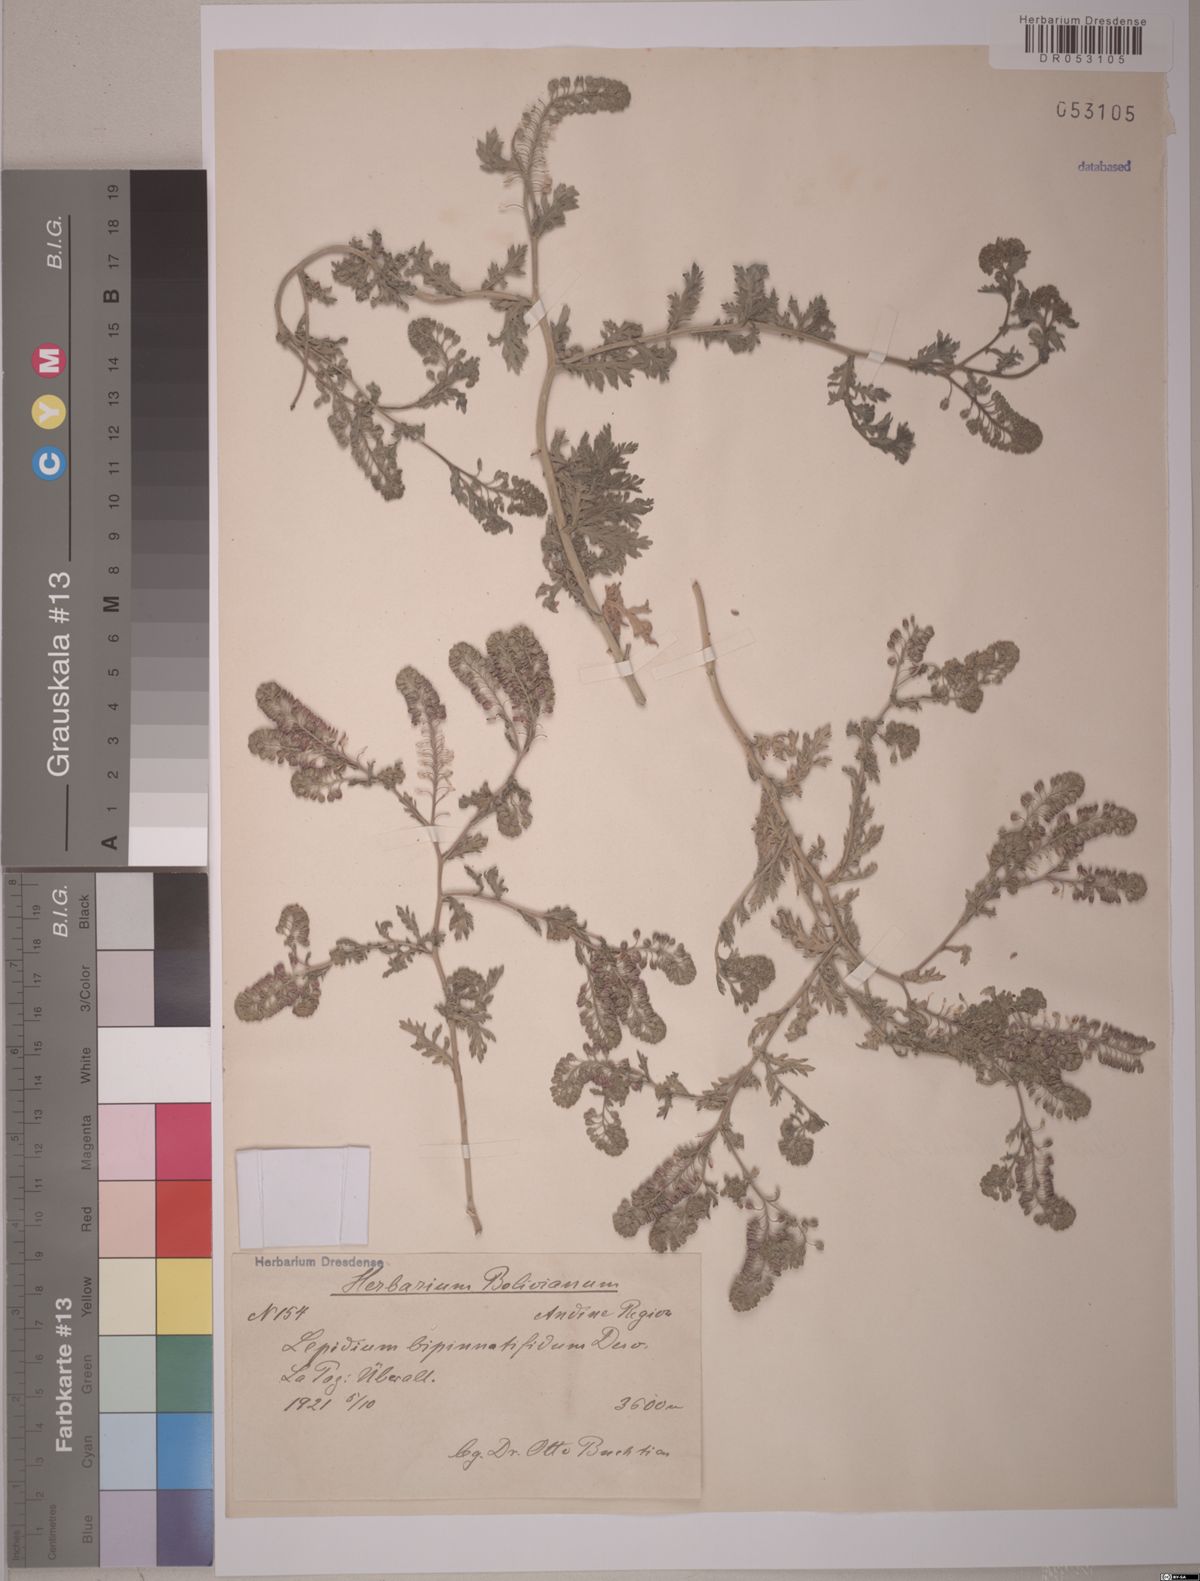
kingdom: Plantae
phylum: Tracheophyta
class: Magnoliopsida
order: Brassicales
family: Brassicaceae
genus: Lepidium
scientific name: Lepidium bipinnatifidum
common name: Wayside pepperwort
